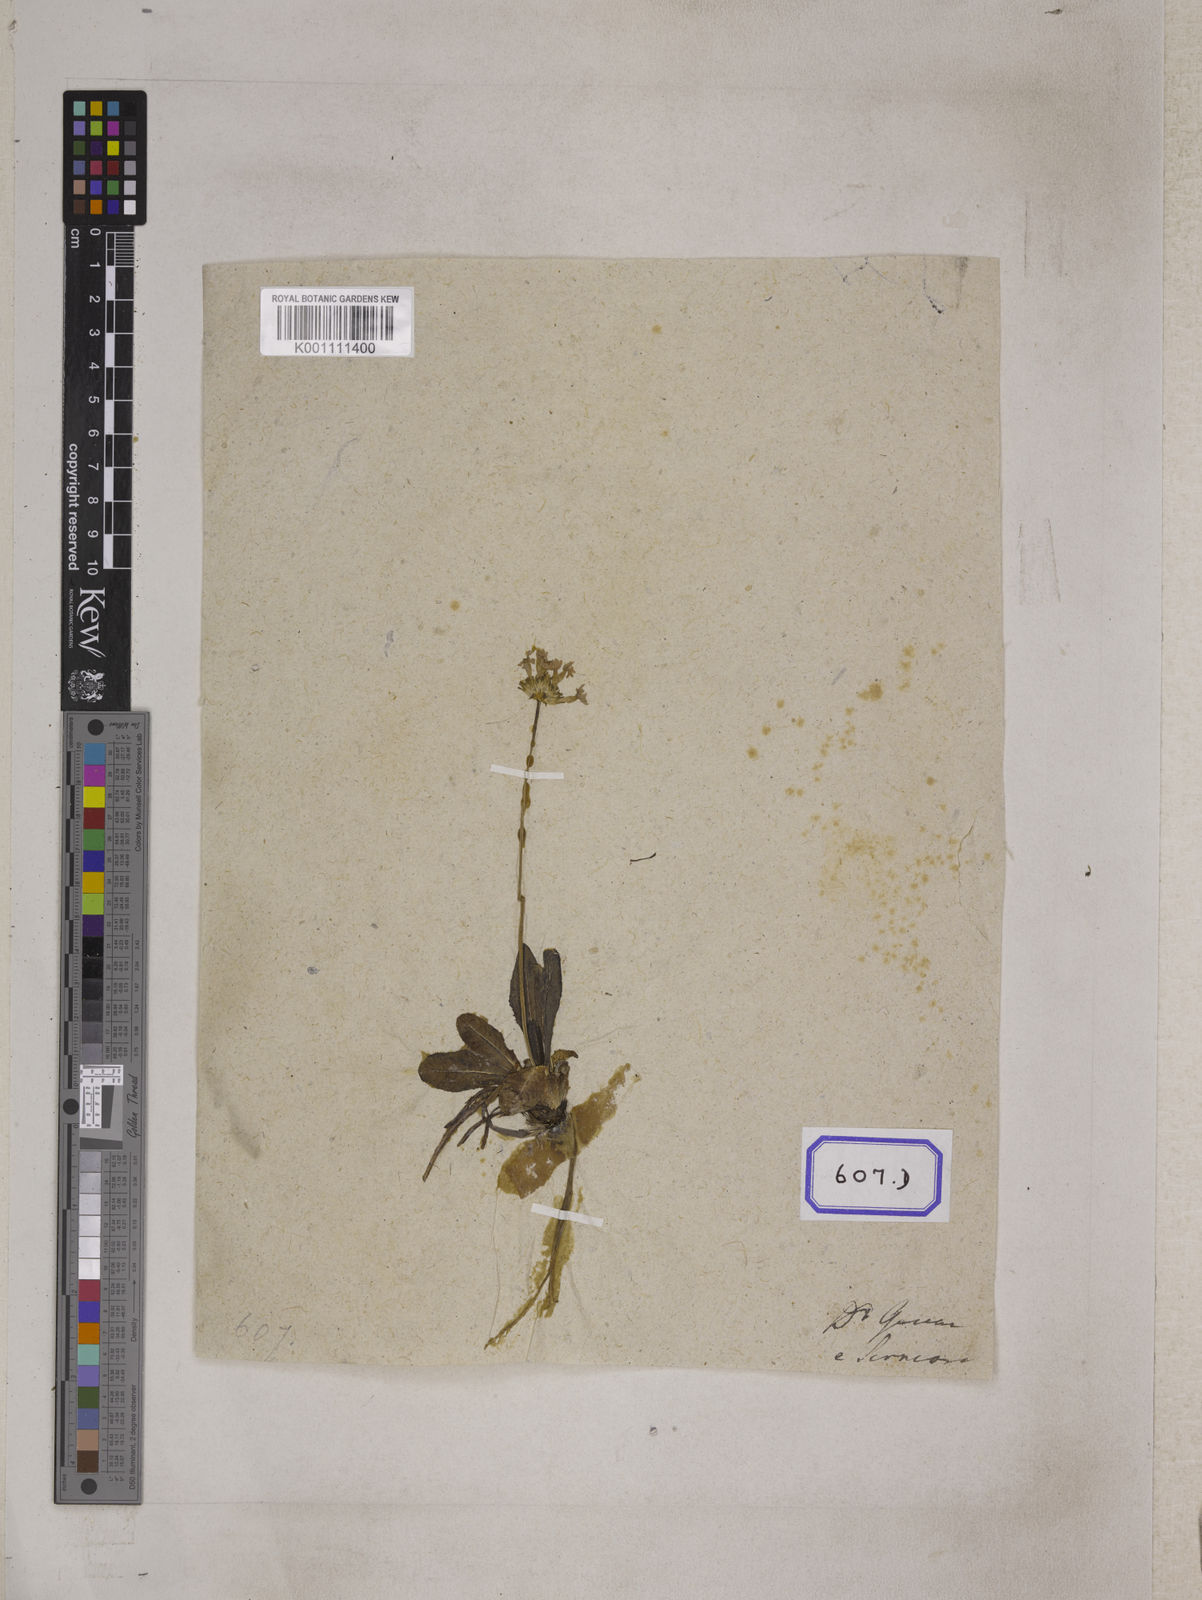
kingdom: Plantae
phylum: Tracheophyta
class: Magnoliopsida
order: Ericales
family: Primulaceae
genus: Primula
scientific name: Primula denticulata
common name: Drumstick primula
